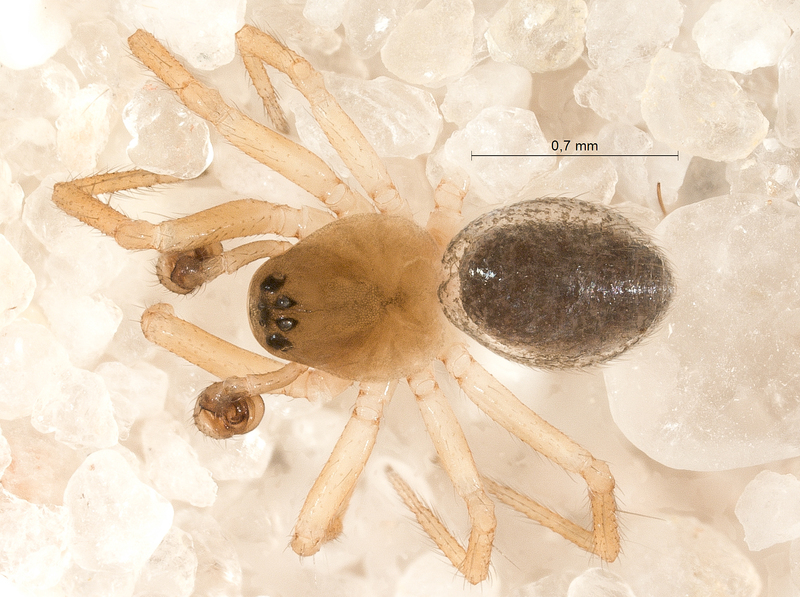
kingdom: Animalia
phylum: Arthropoda
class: Arachnida
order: Araneae
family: Linyphiidae
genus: Maso
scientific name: Maso sundevalli
